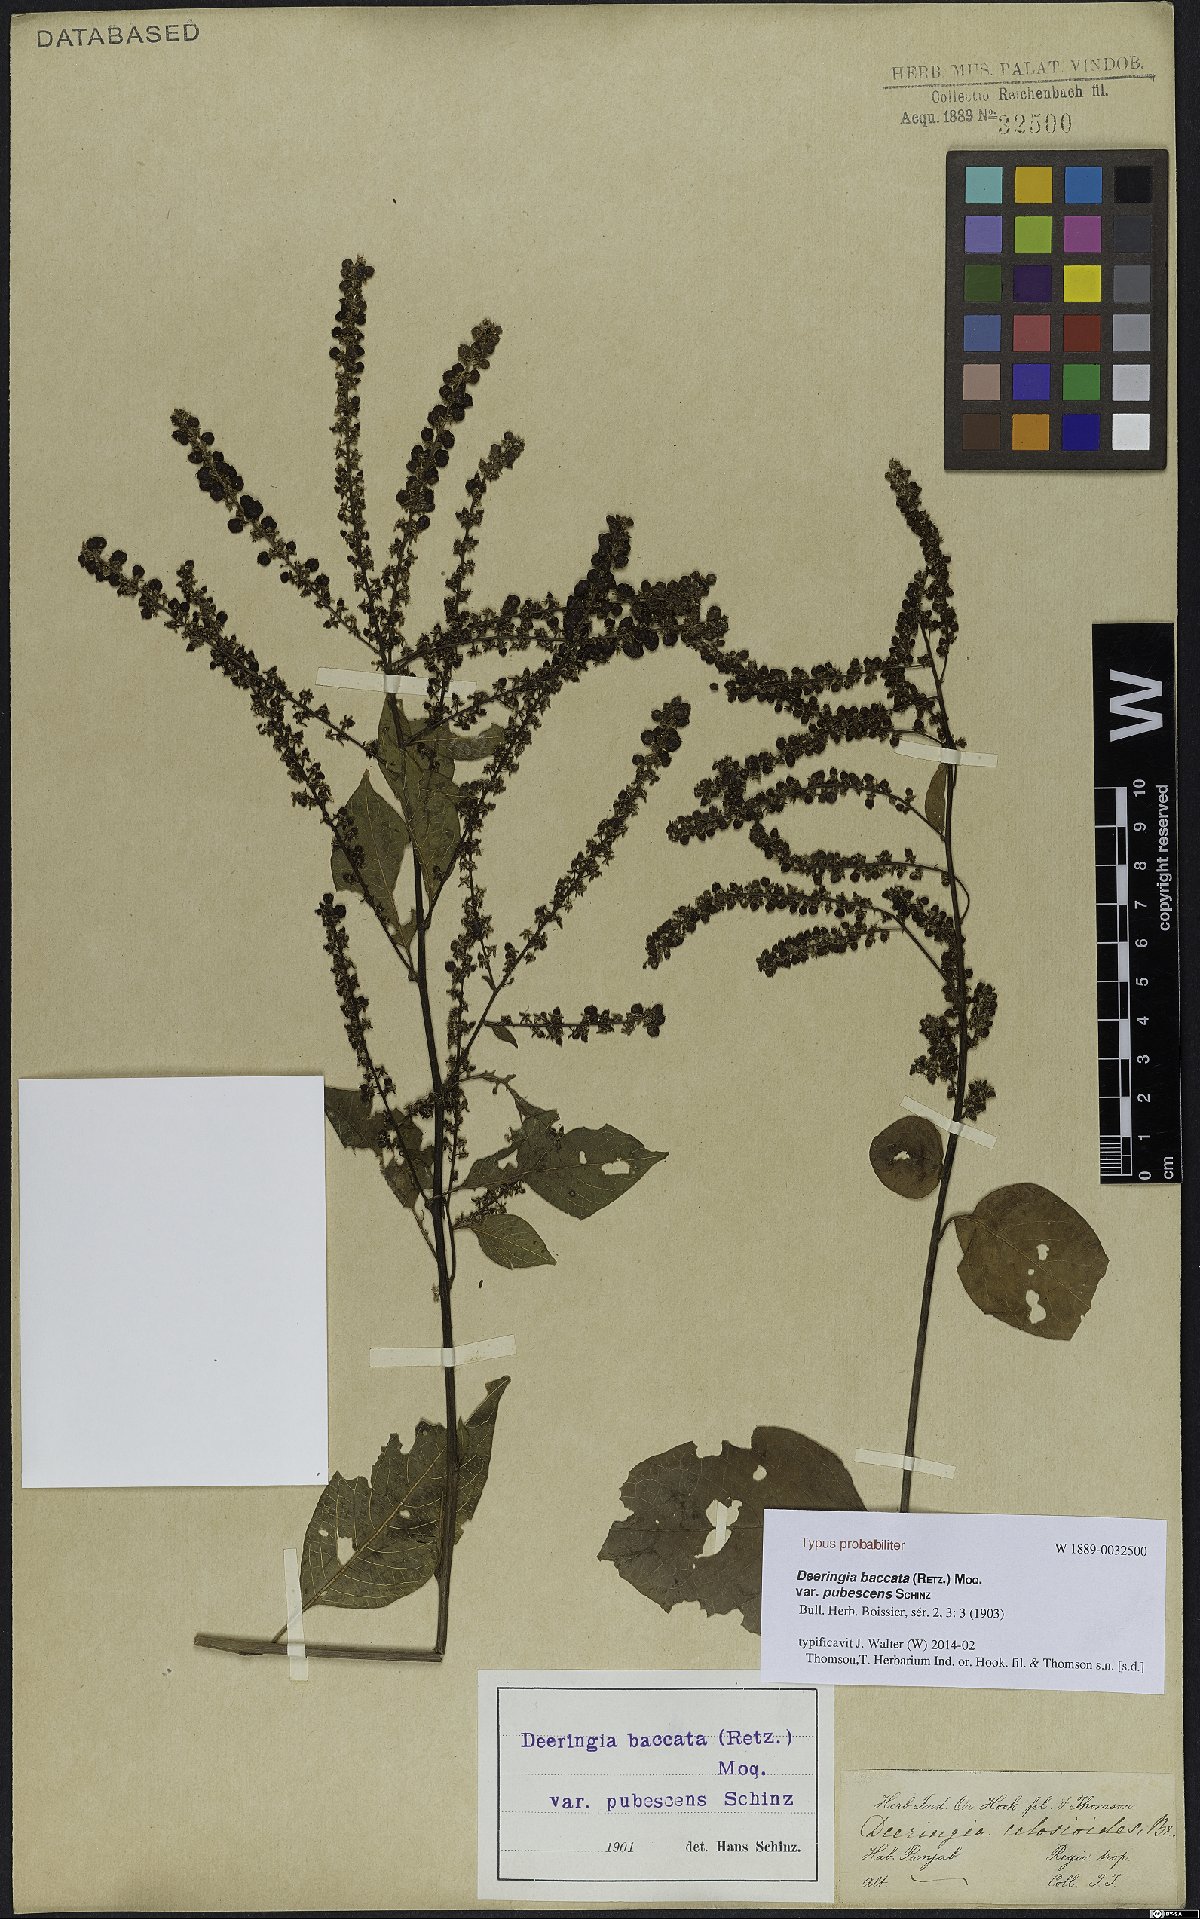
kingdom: Plantae
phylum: Tracheophyta
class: Magnoliopsida
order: Caryophyllales
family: Amaranthaceae
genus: Deeringia
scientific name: Deeringia amaranthoides
